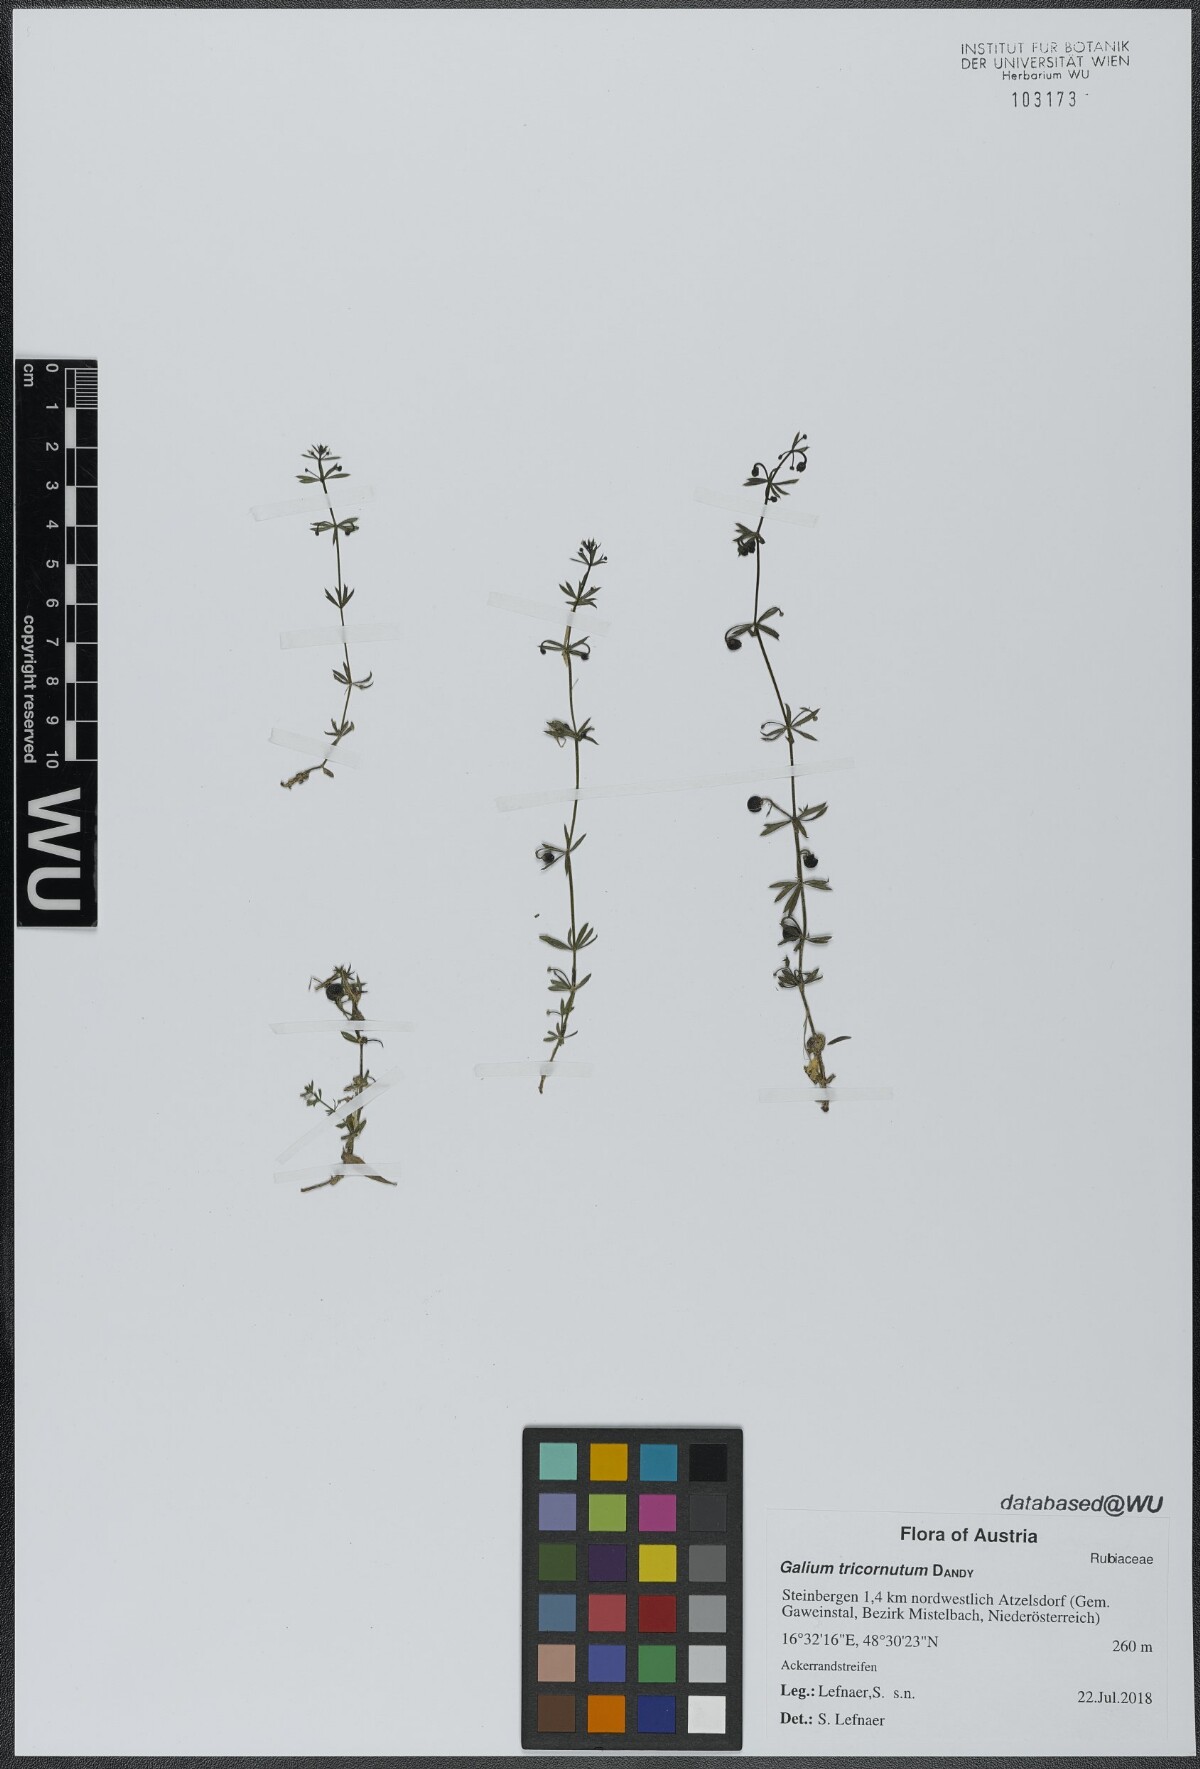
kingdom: Plantae
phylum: Tracheophyta
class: Magnoliopsida
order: Gentianales
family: Rubiaceae
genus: Galium
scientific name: Galium tricornutum
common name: Corn cleavers
